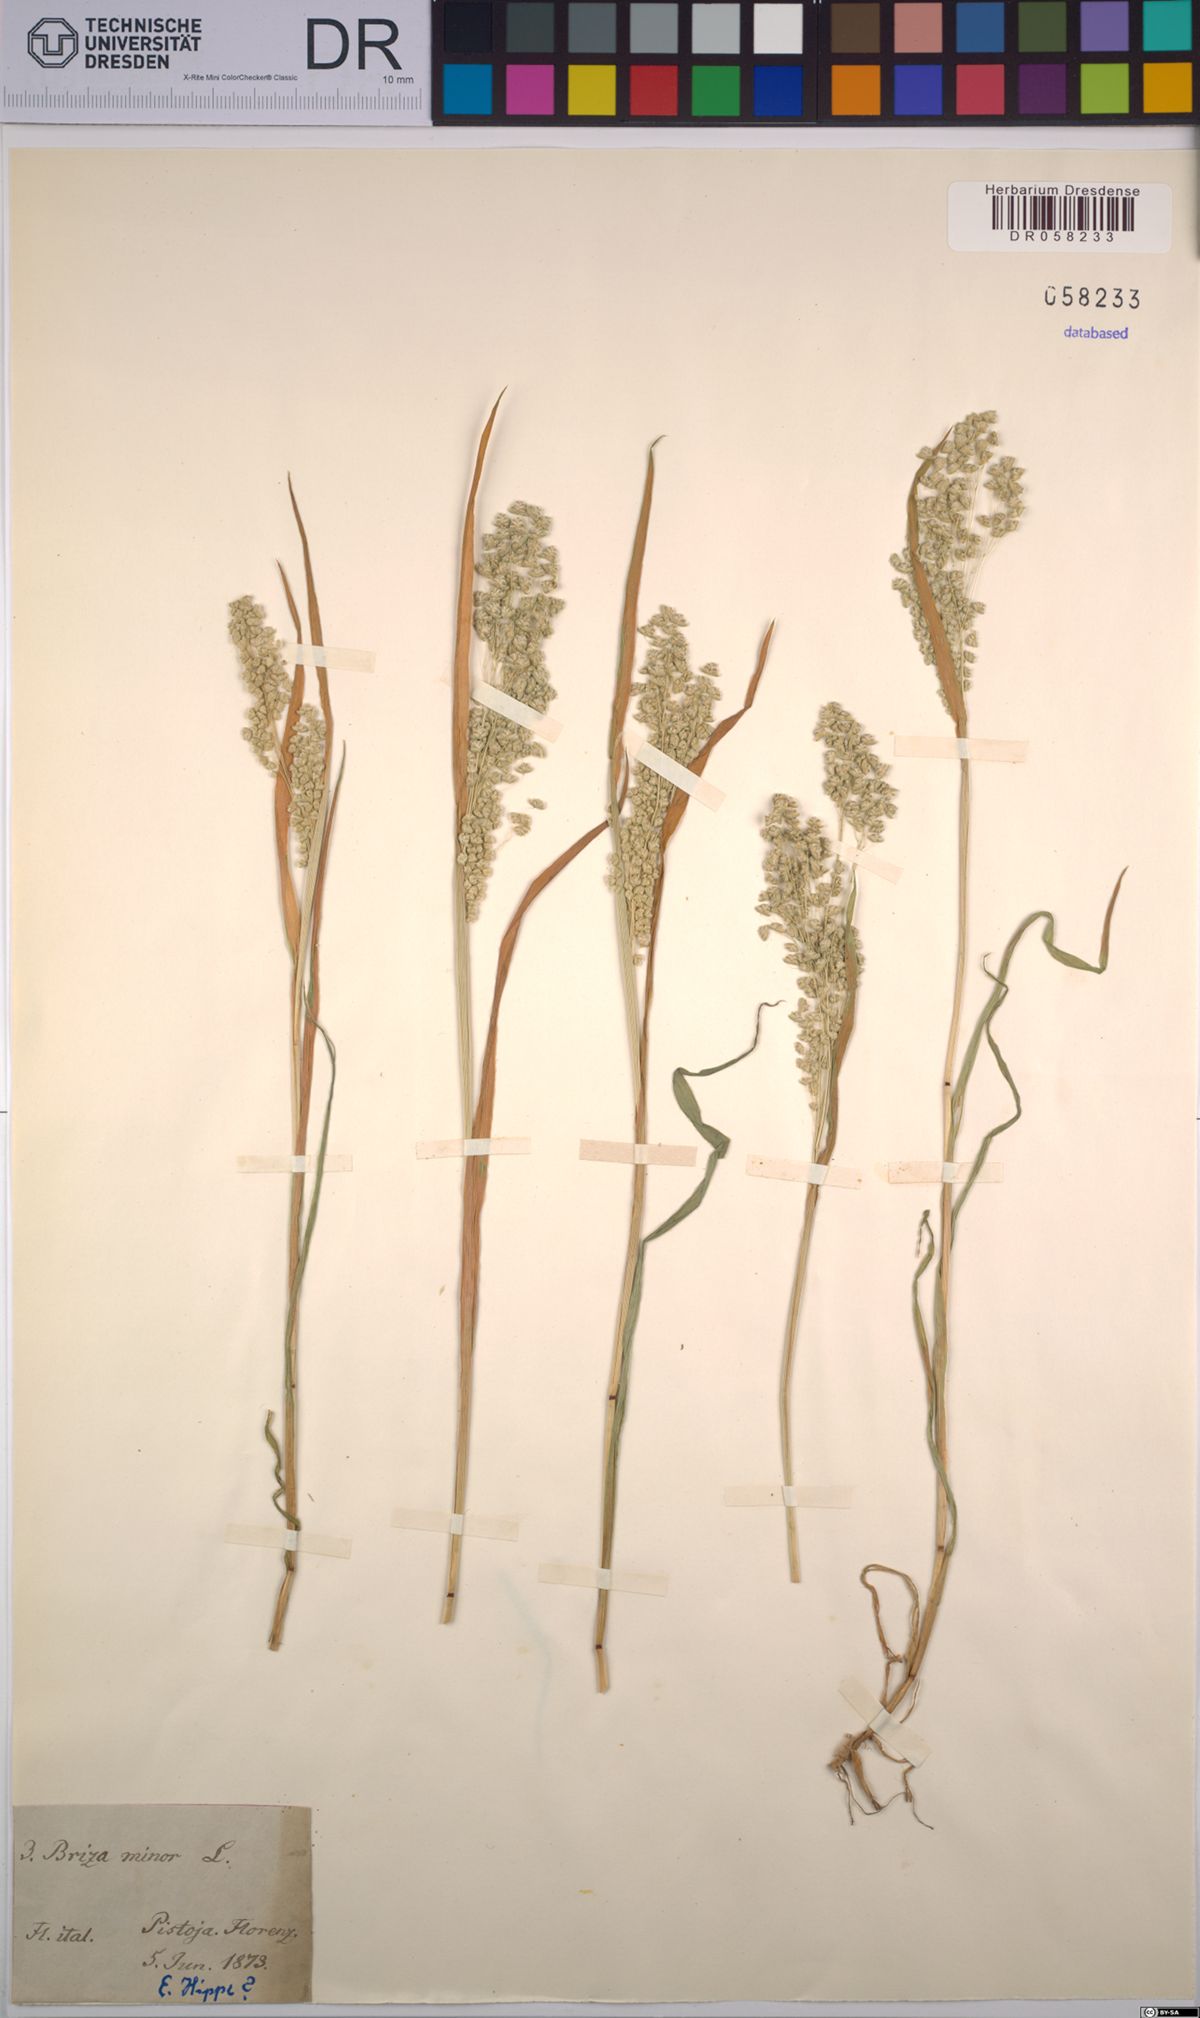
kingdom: Plantae
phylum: Tracheophyta
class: Liliopsida
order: Poales
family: Poaceae
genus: Briza
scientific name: Briza minor
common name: Lesser quaking-grass
